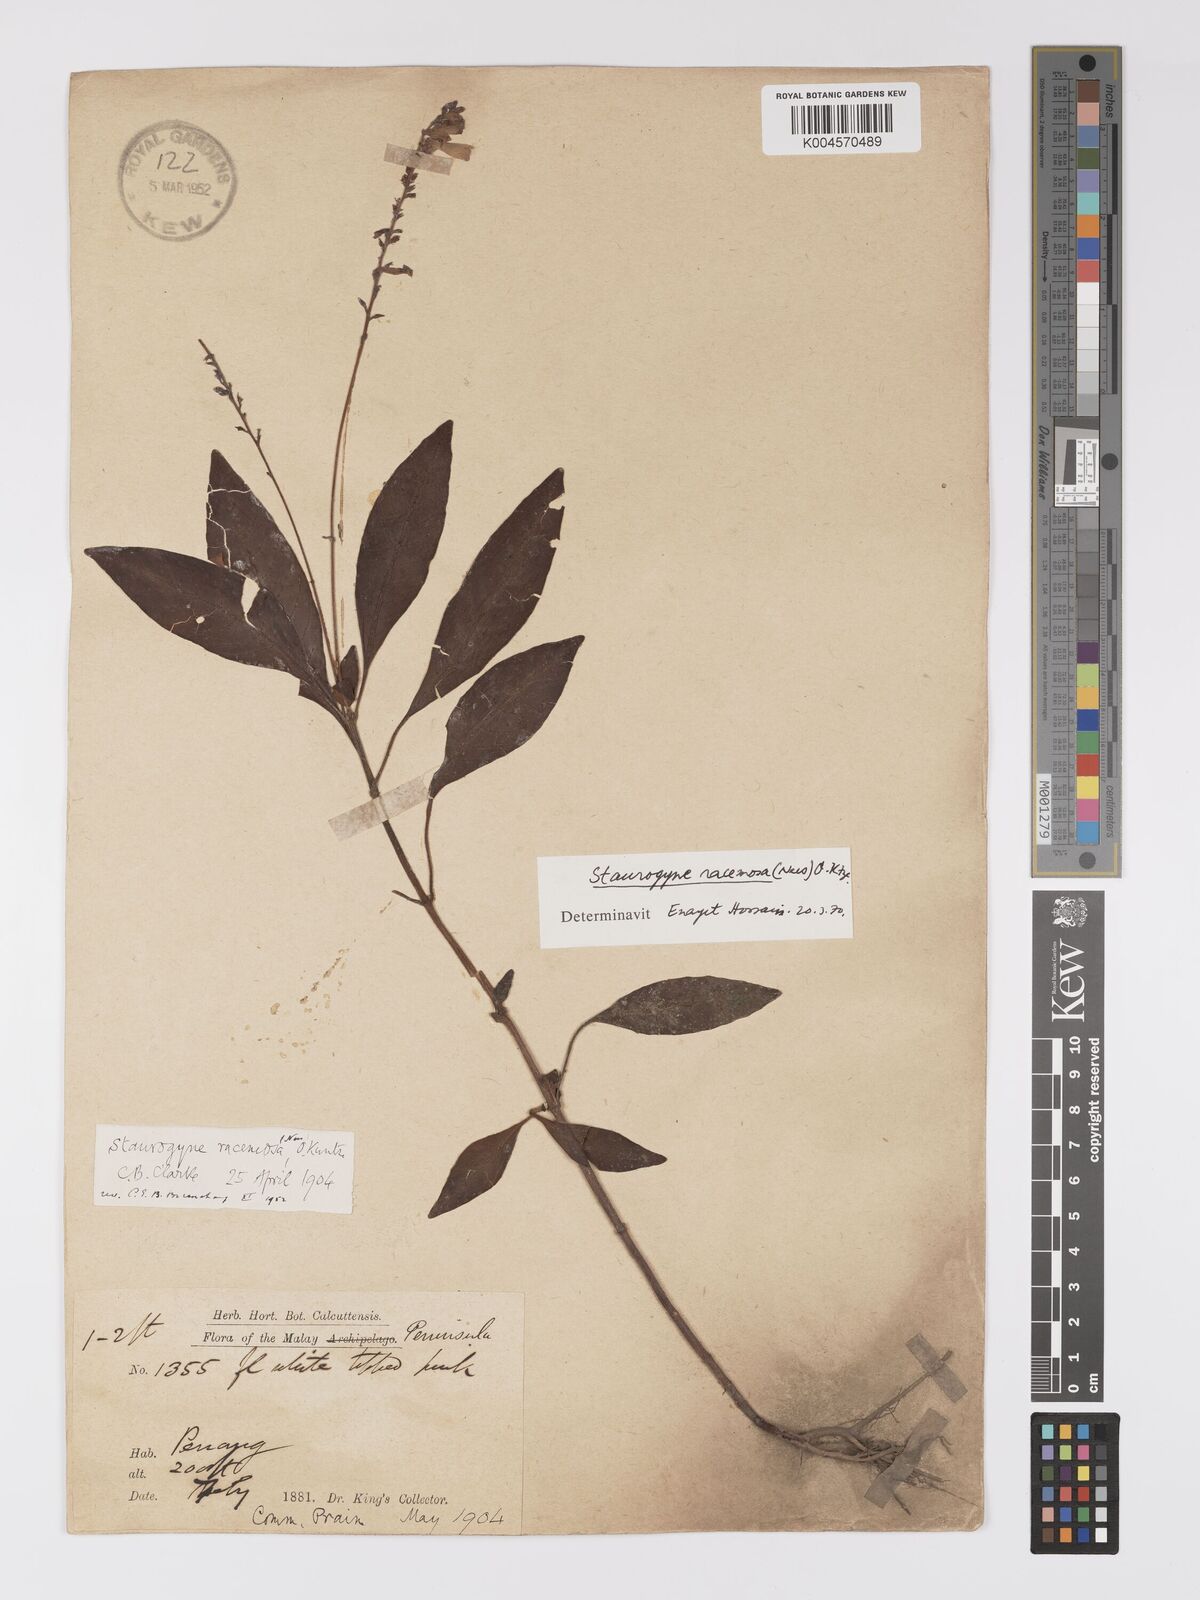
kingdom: Plantae
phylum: Tracheophyta
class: Magnoliopsida
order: Lamiales
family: Acanthaceae
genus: Staurogyne
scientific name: Staurogyne racemosa
